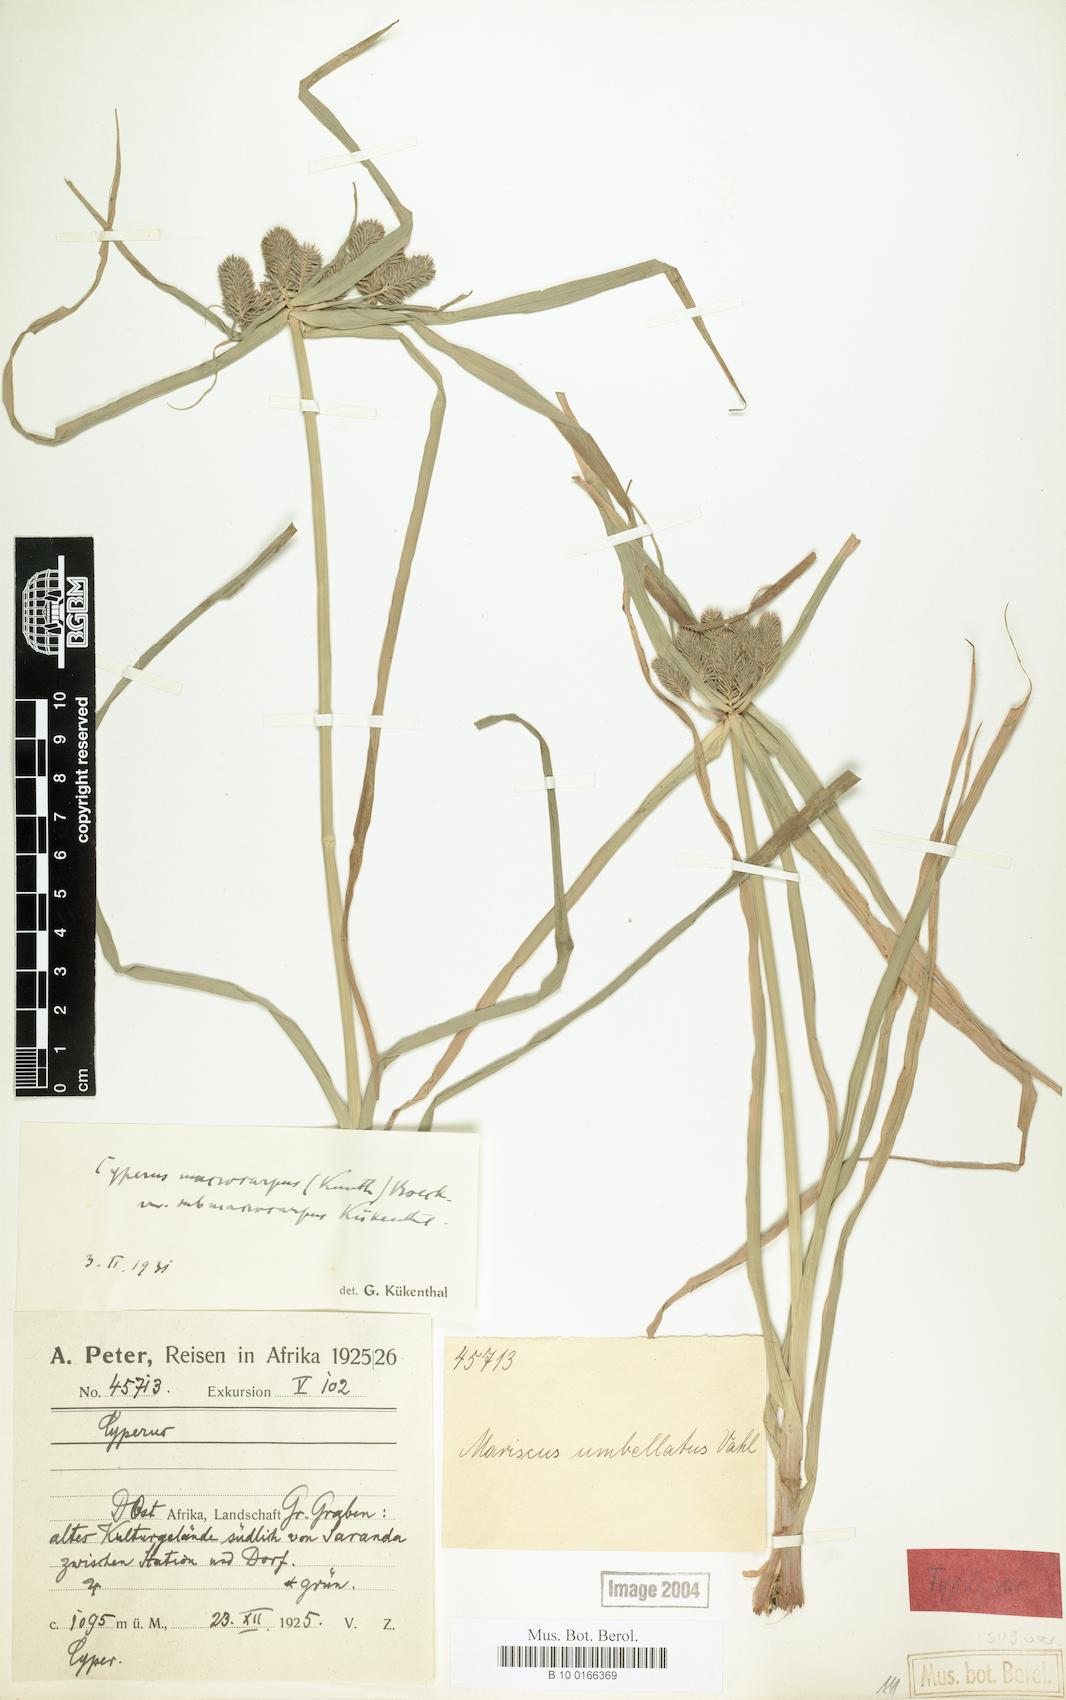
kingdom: Plantae
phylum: Tracheophyta
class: Liliopsida
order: Poales
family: Cyperaceae
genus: Cyperus
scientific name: Cyperus cyperoides
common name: Pacific island flat sedge
